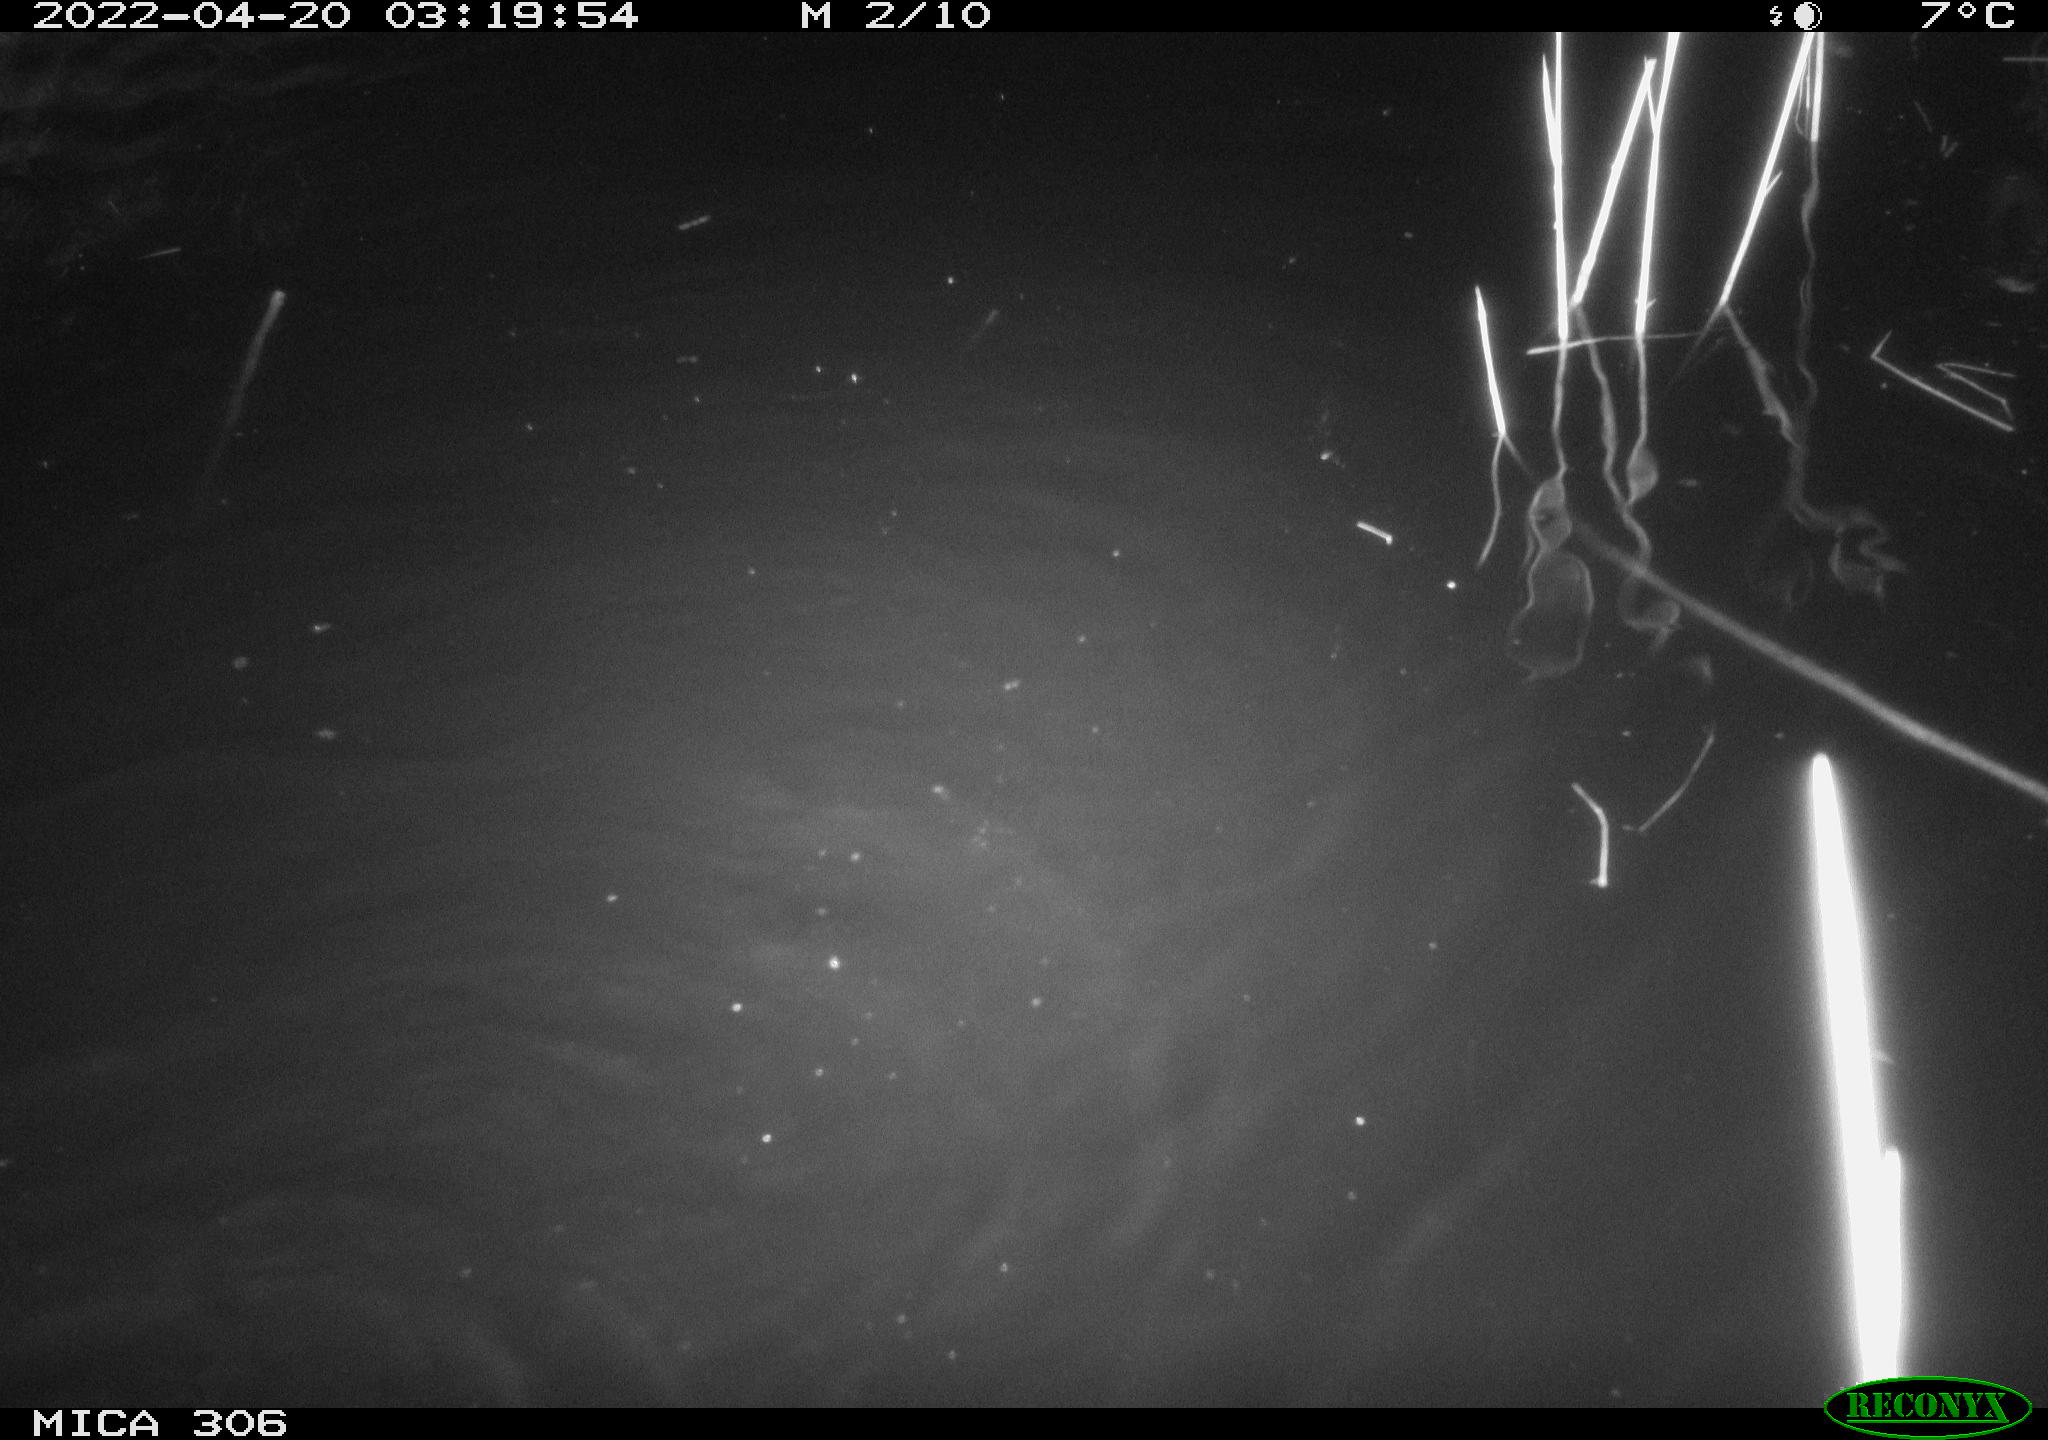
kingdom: Animalia
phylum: Chordata
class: Mammalia
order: Rodentia
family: Cricetidae
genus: Ondatra
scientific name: Ondatra zibethicus
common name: Muskrat
